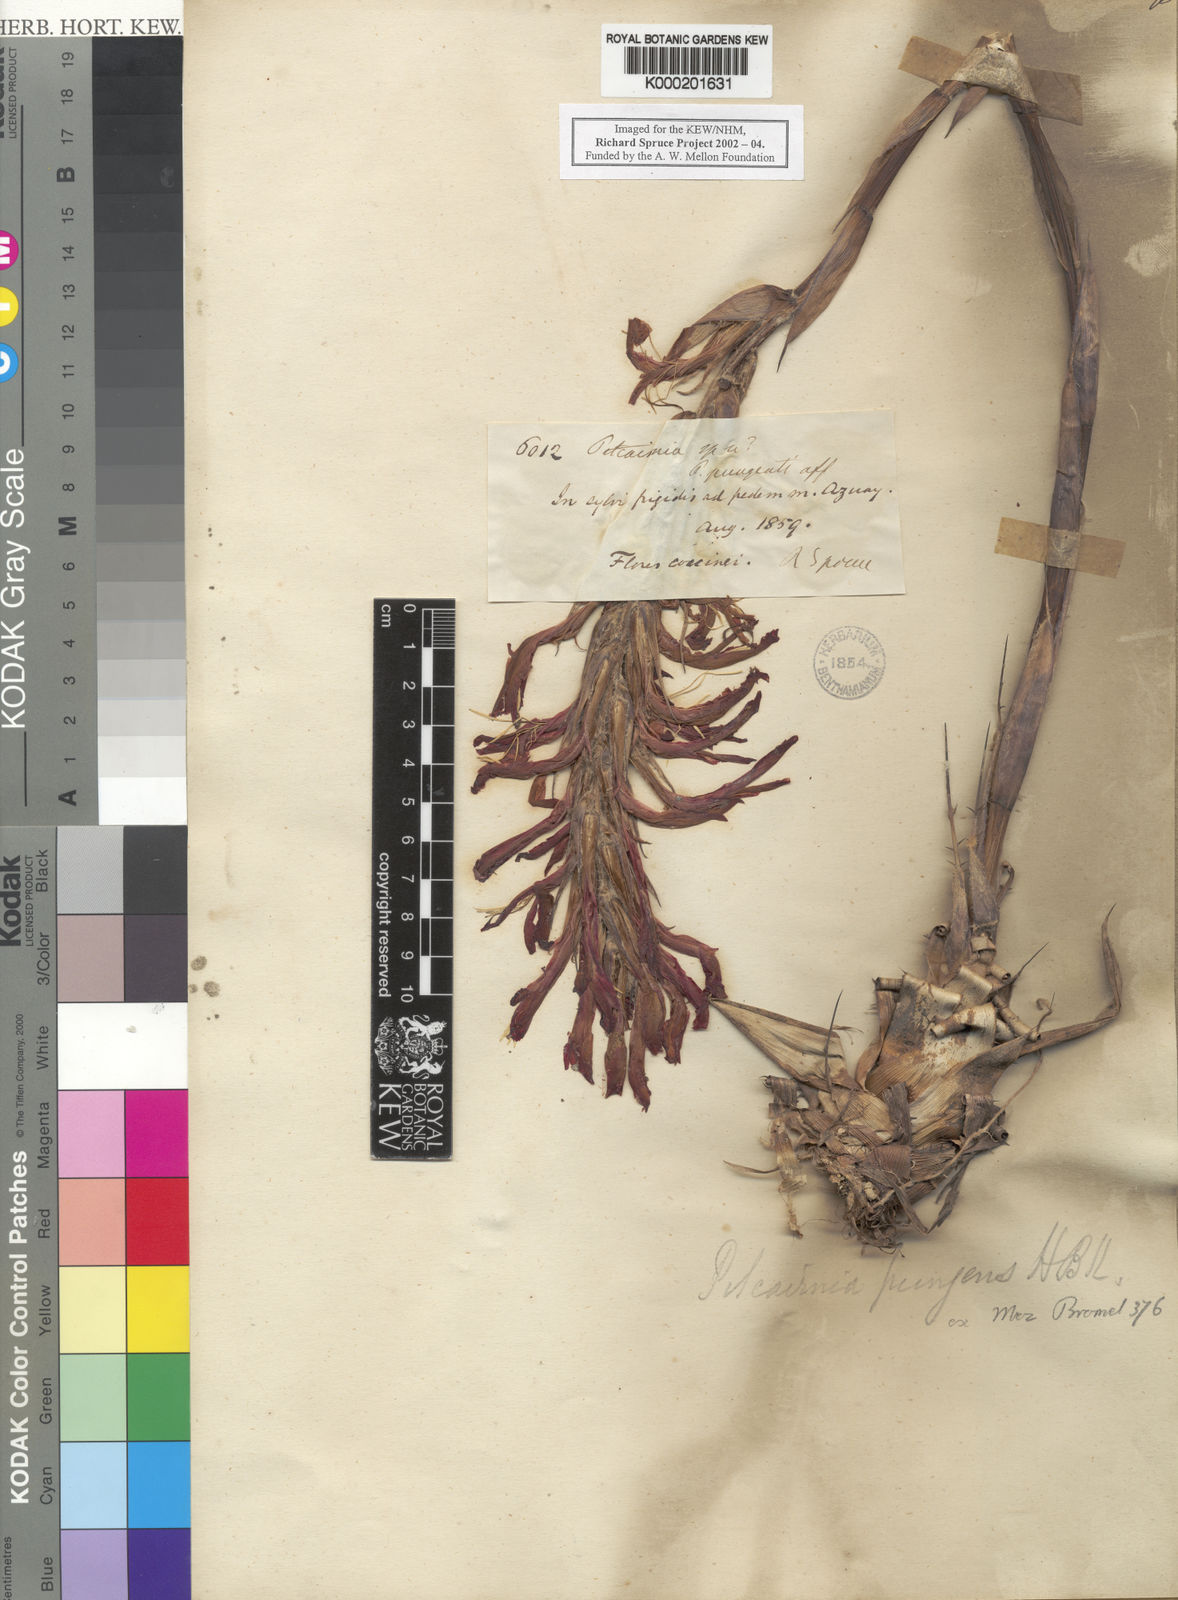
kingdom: Plantae
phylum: Tracheophyta
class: Liliopsida
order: Poales
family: Bromeliaceae
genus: Pitcairnia
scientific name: Pitcairnia pungens
